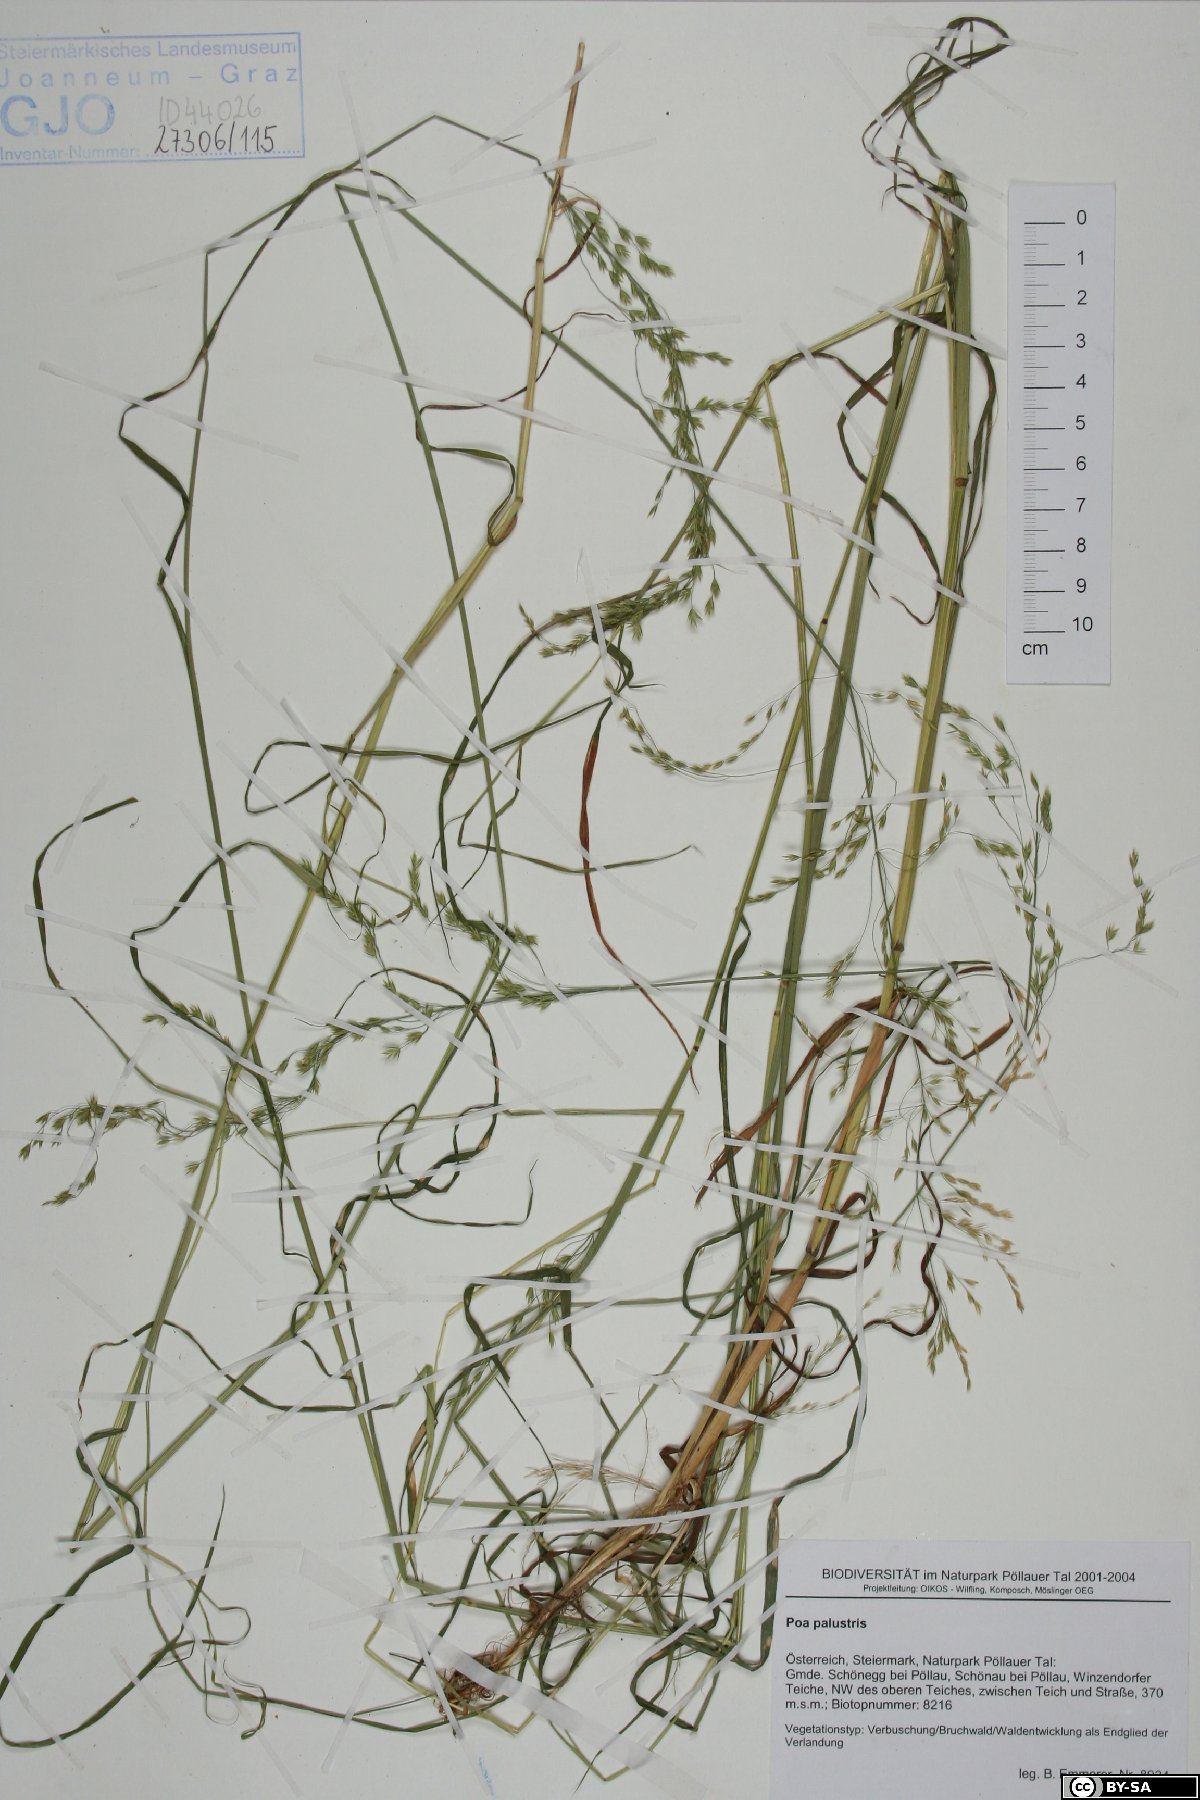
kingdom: Plantae
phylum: Tracheophyta
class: Liliopsida
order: Poales
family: Poaceae
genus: Poa
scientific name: Poa palustris
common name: Swamp meadow-grass
